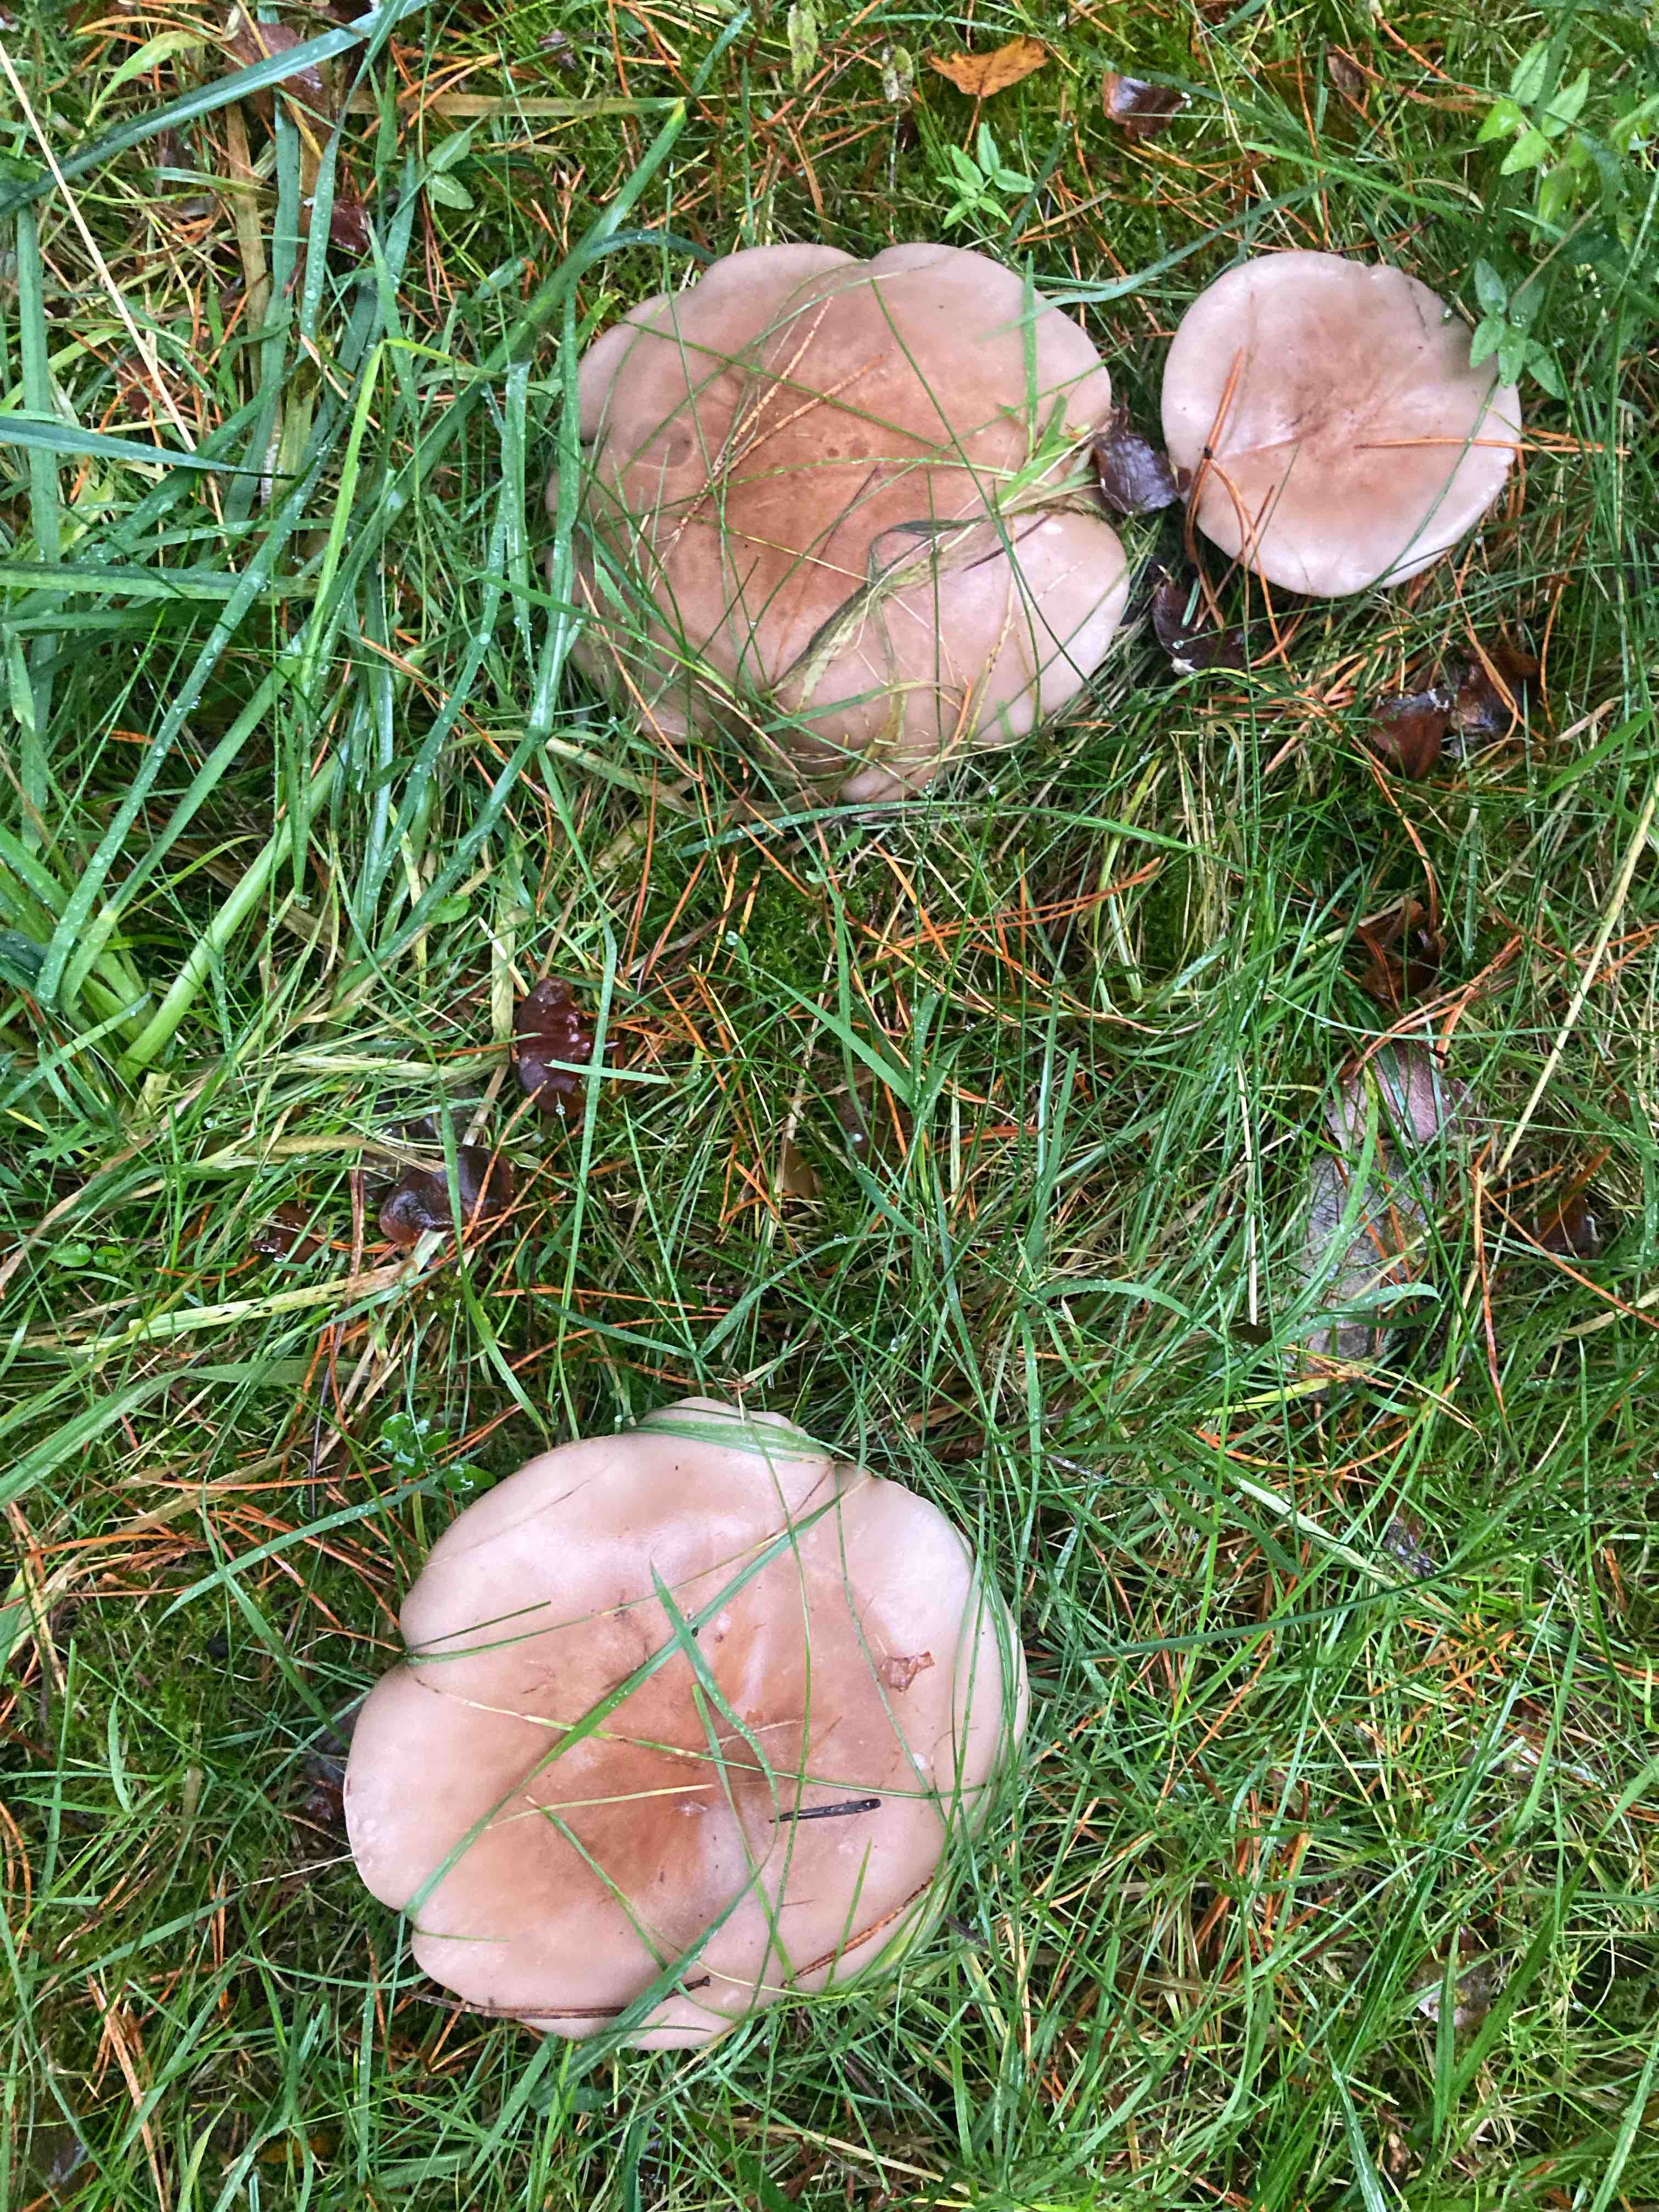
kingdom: Fungi
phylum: Basidiomycota
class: Agaricomycetes
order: Agaricales
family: Tricholomataceae
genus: Lepista
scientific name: Lepista personata
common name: bleg hekseringshat
